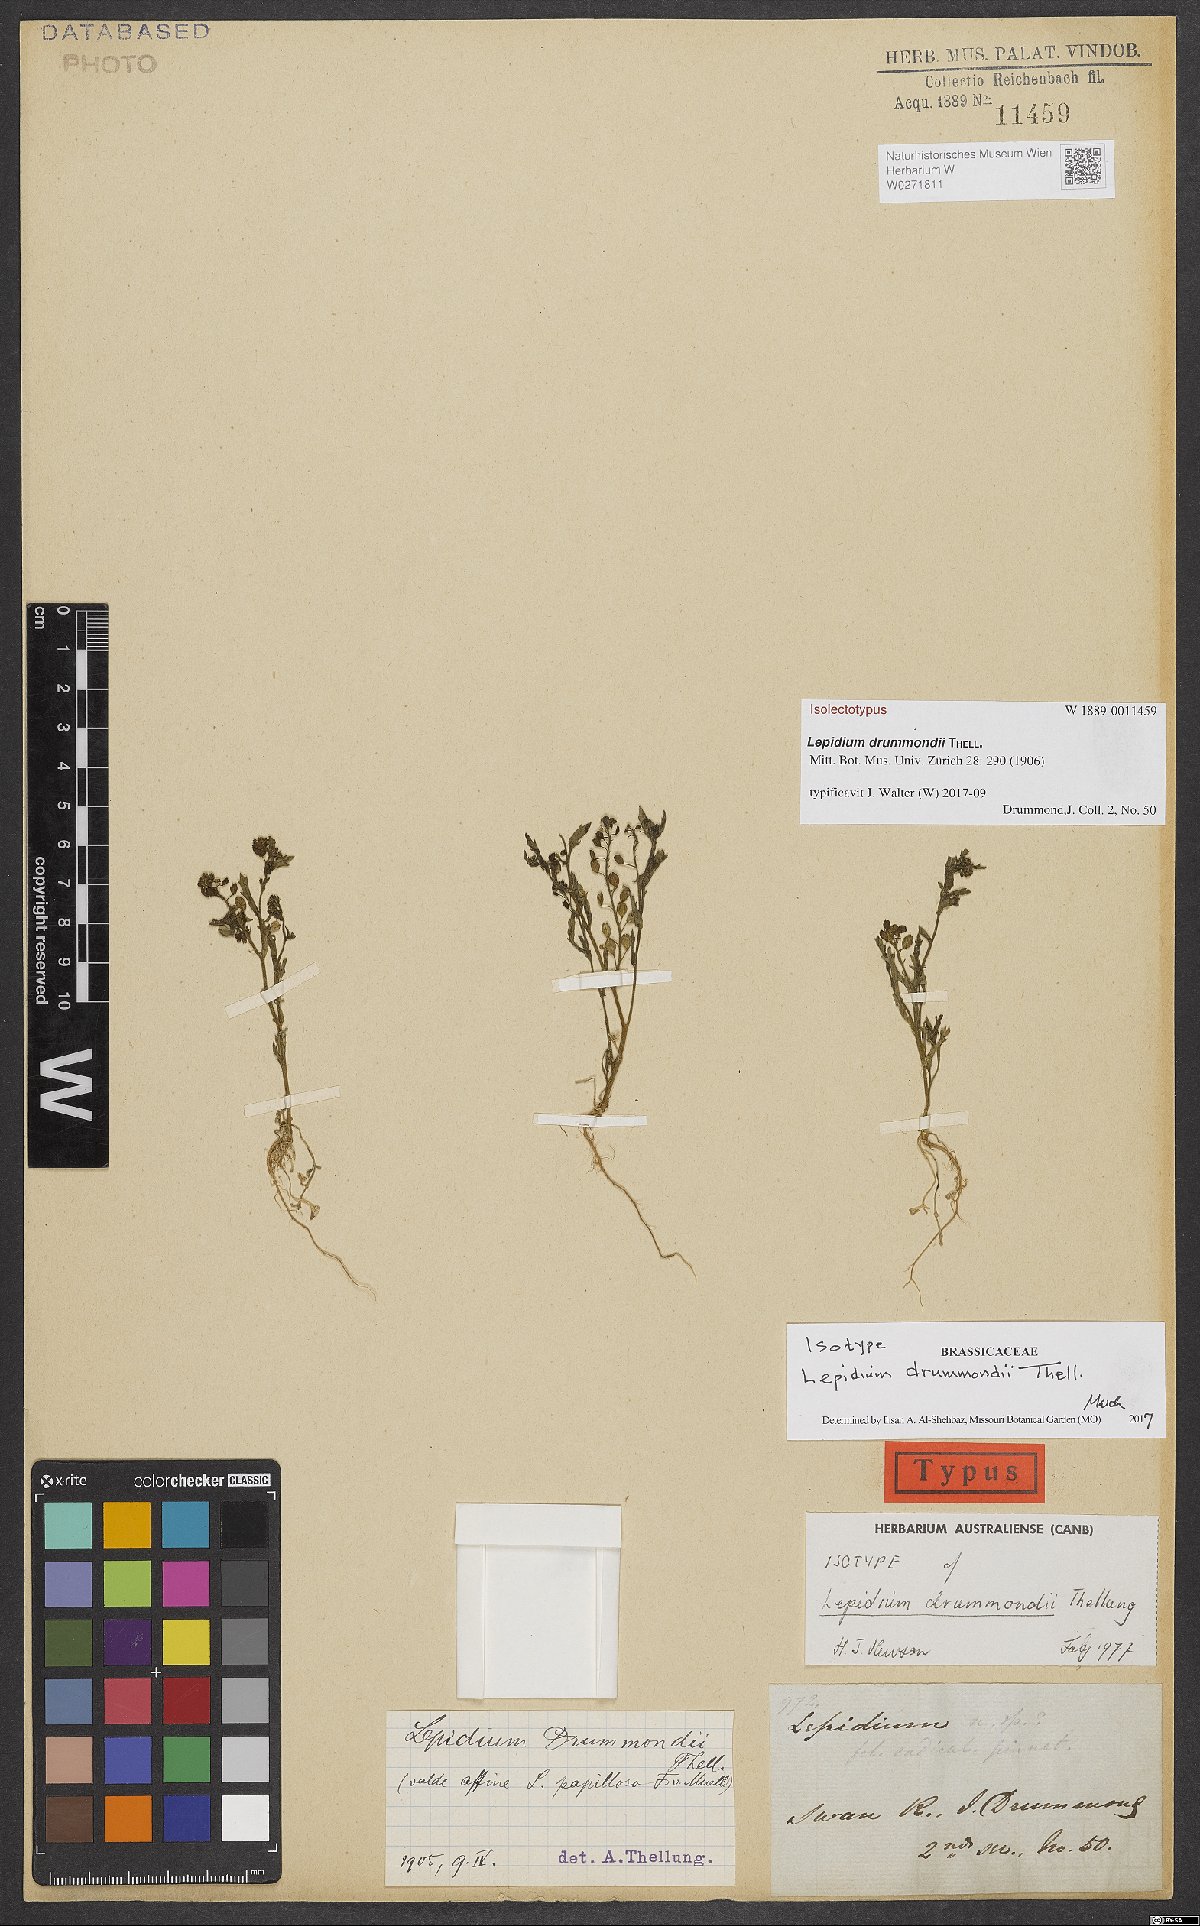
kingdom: Plantae
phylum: Tracheophyta
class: Magnoliopsida
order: Brassicales
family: Brassicaceae
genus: Lepidium
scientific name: Lepidium drummondii
